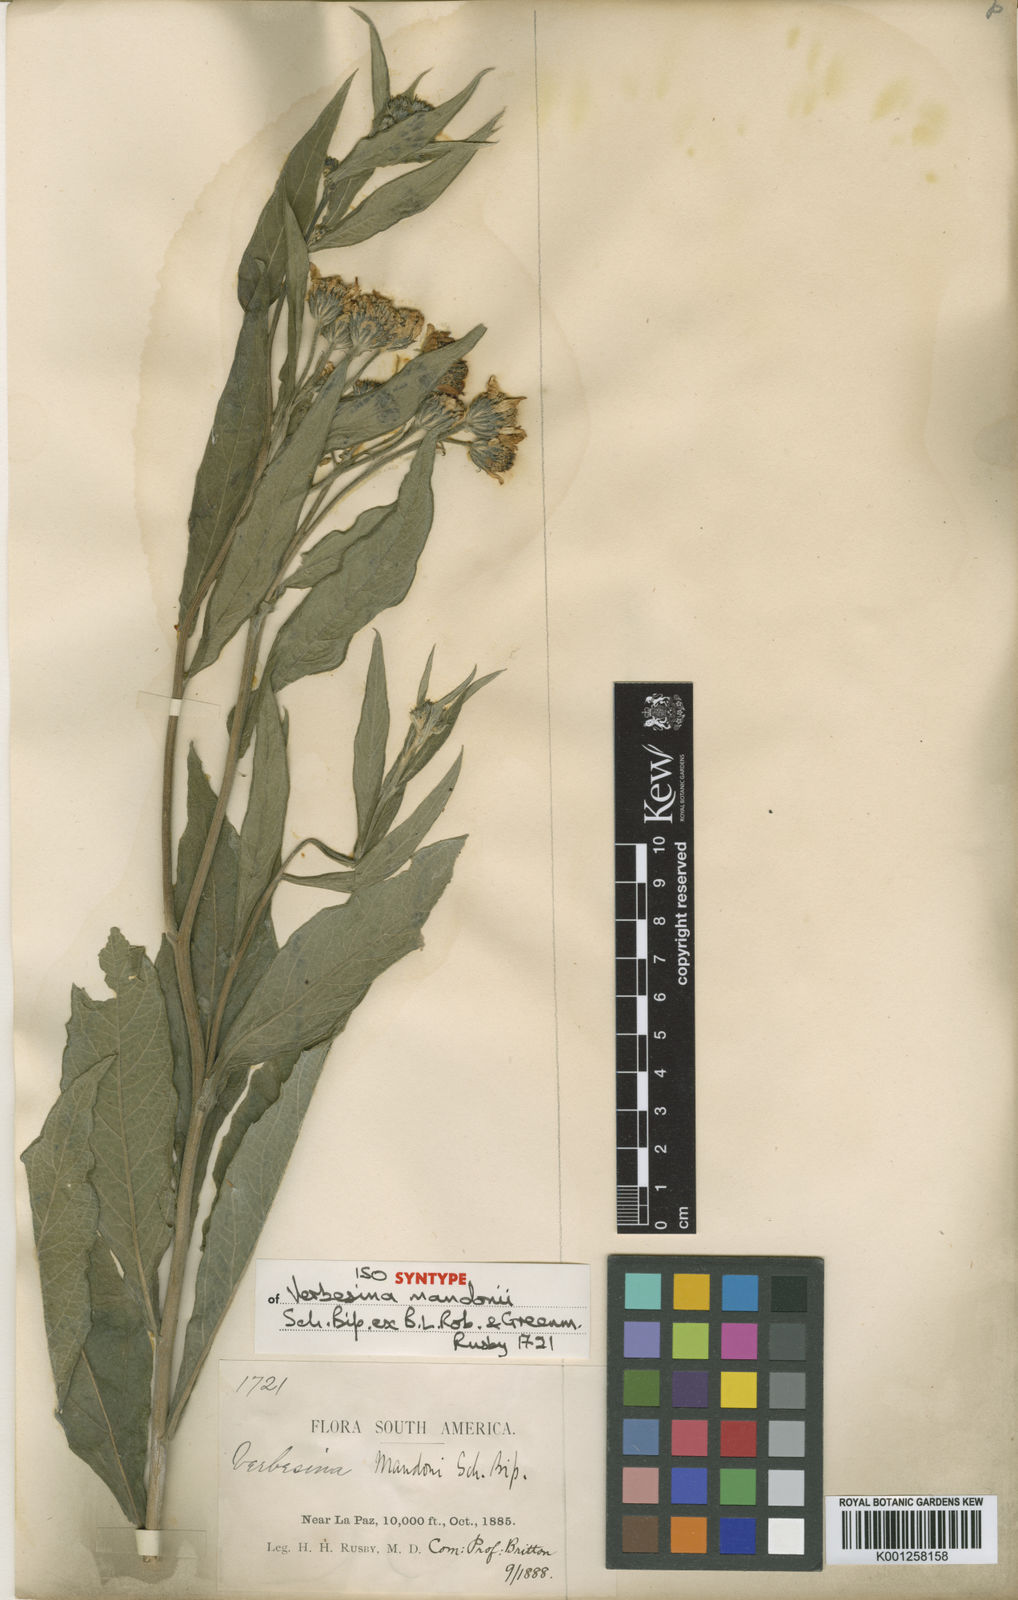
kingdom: Plantae
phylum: Tracheophyta
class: Magnoliopsida
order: Asterales
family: Asteraceae
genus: Verbesina
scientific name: Verbesina
